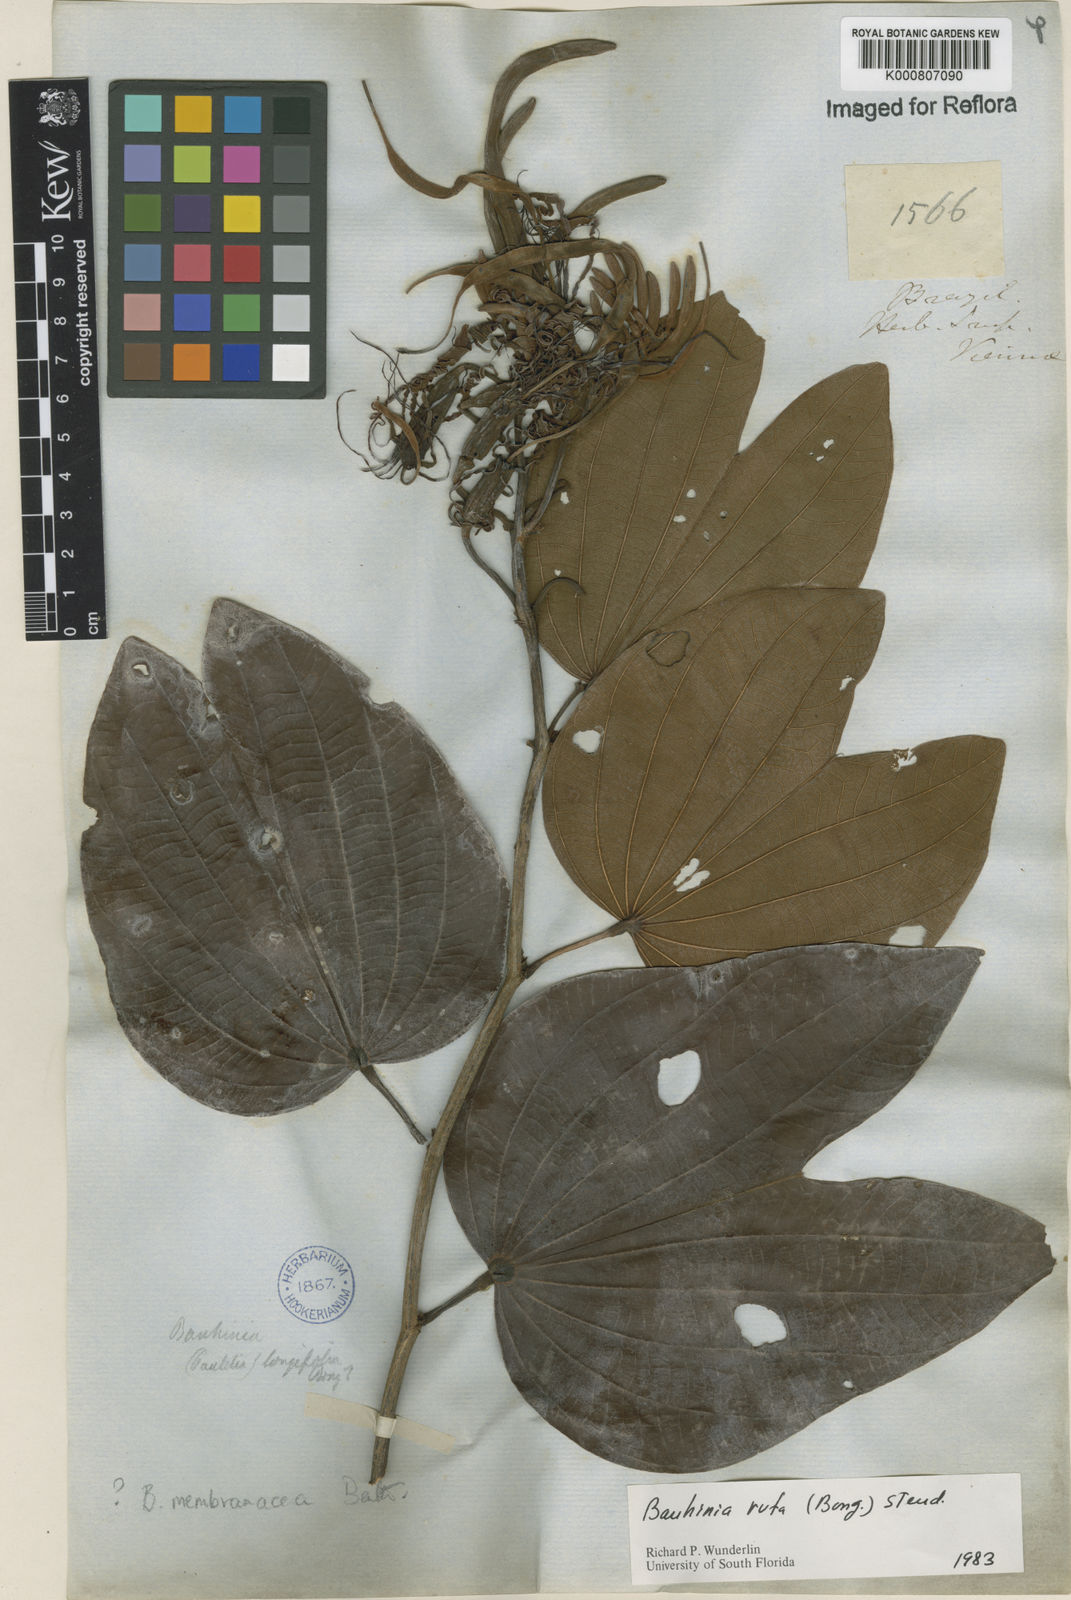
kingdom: Plantae
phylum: Tracheophyta
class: Magnoliopsida
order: Fabales
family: Fabaceae
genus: Bauhinia
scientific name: Bauhinia rufa
